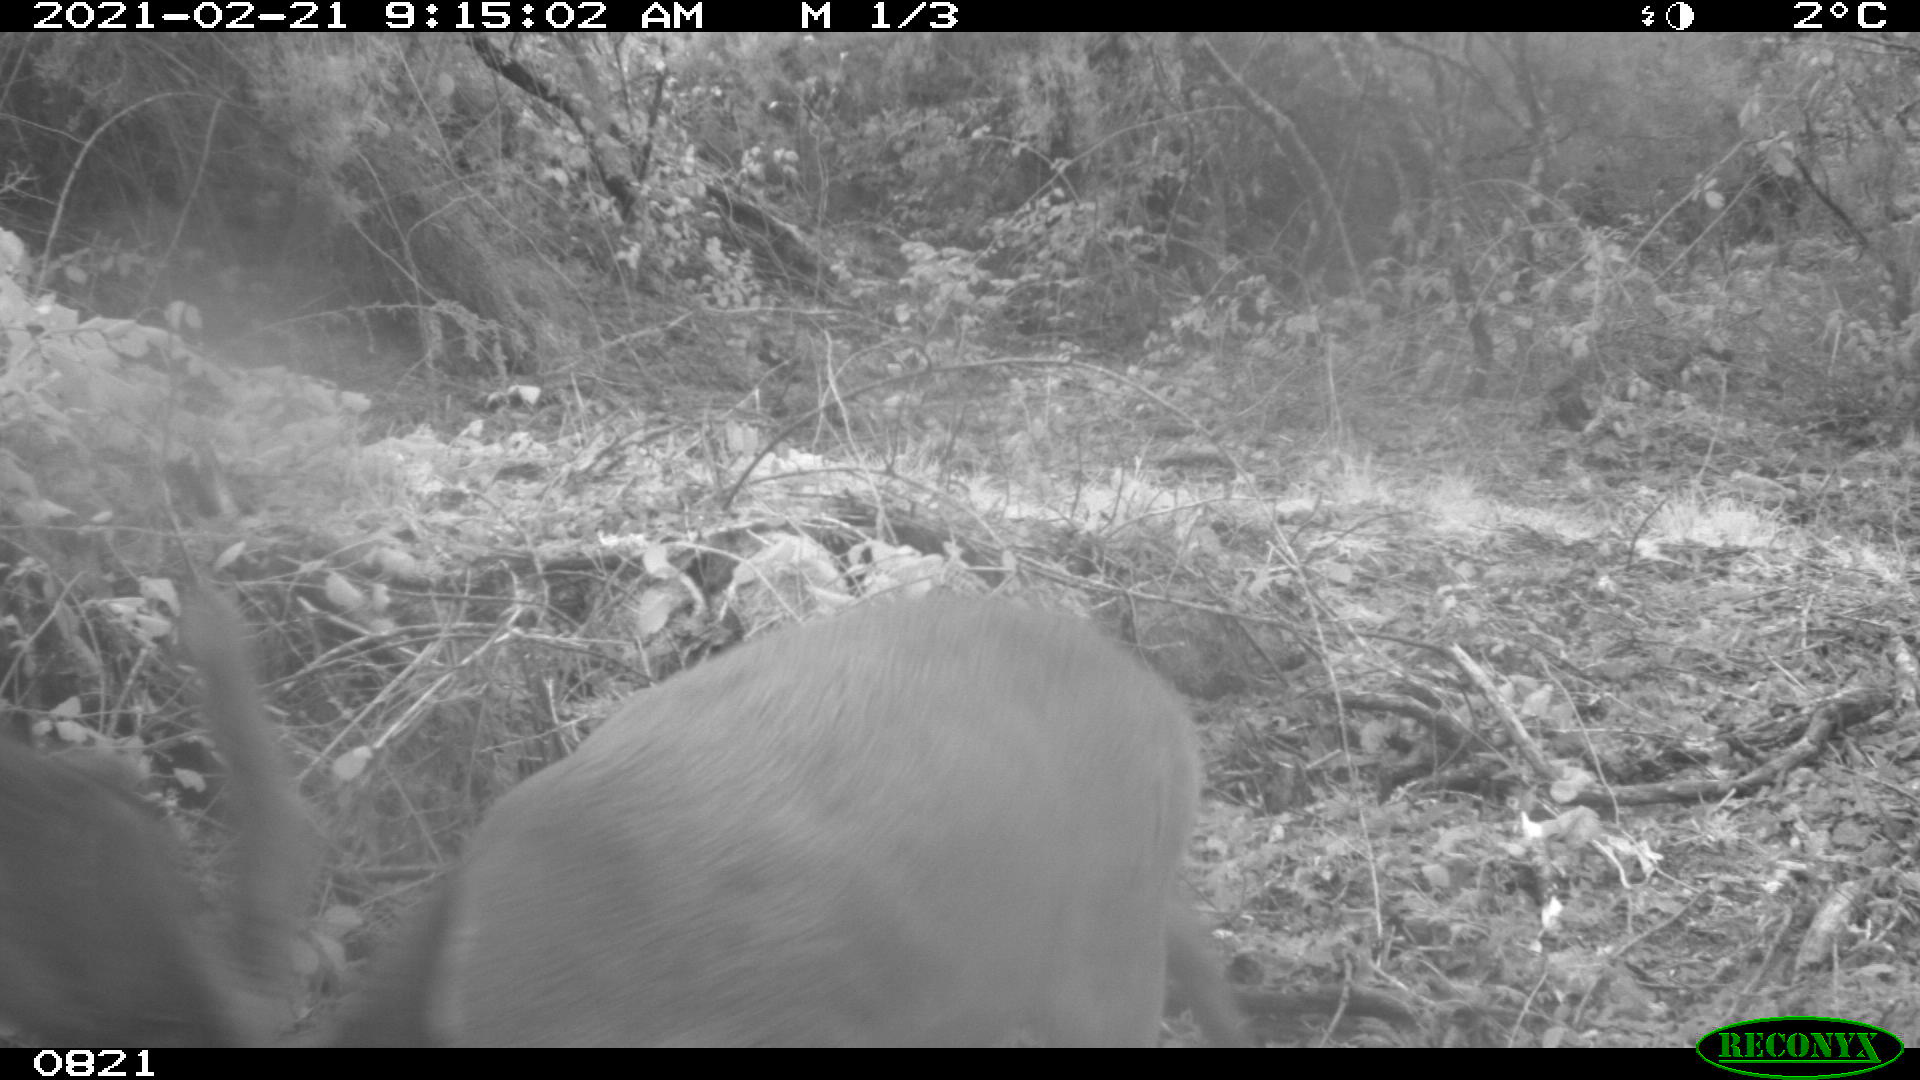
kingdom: Animalia
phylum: Chordata
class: Mammalia
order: Artiodactyla
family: Cervidae
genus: Capreolus
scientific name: Capreolus capreolus
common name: Western roe deer
